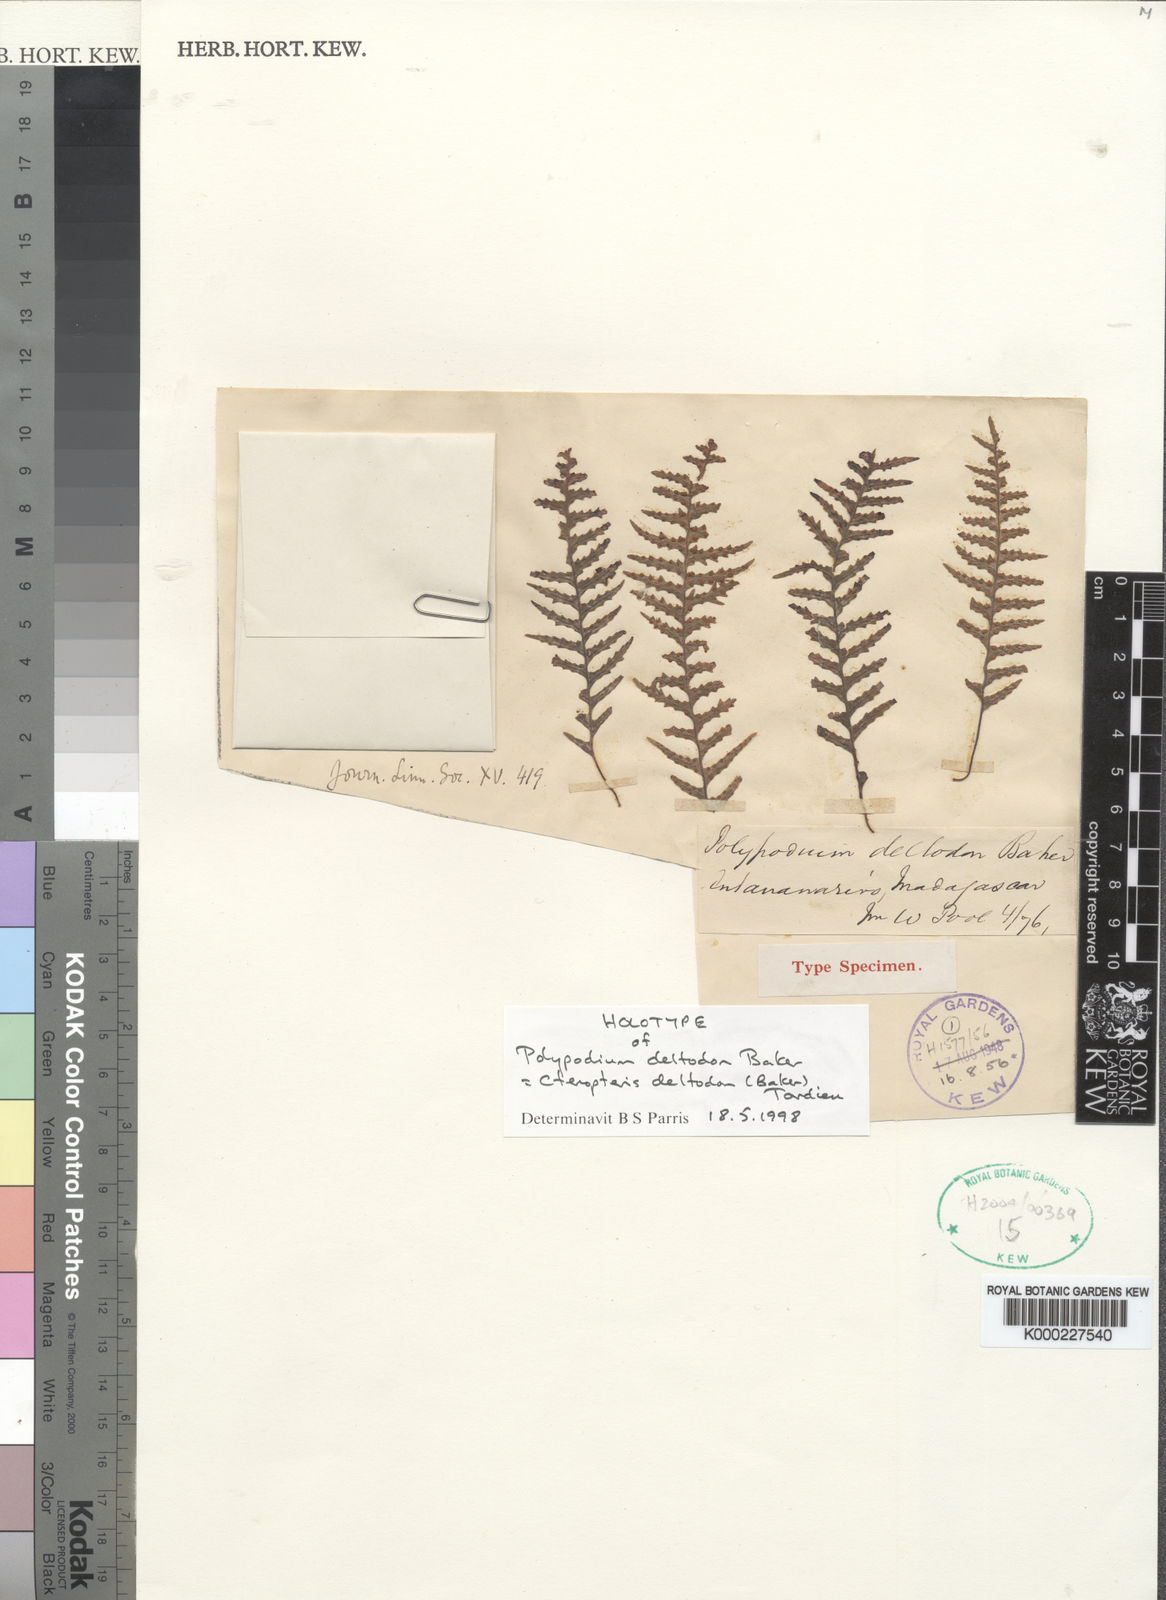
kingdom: Plantae
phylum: Tracheophyta
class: Polypodiopsida
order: Polypodiales
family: Polypodiaceae
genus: Ceradenia
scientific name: Ceradenia deltodon
